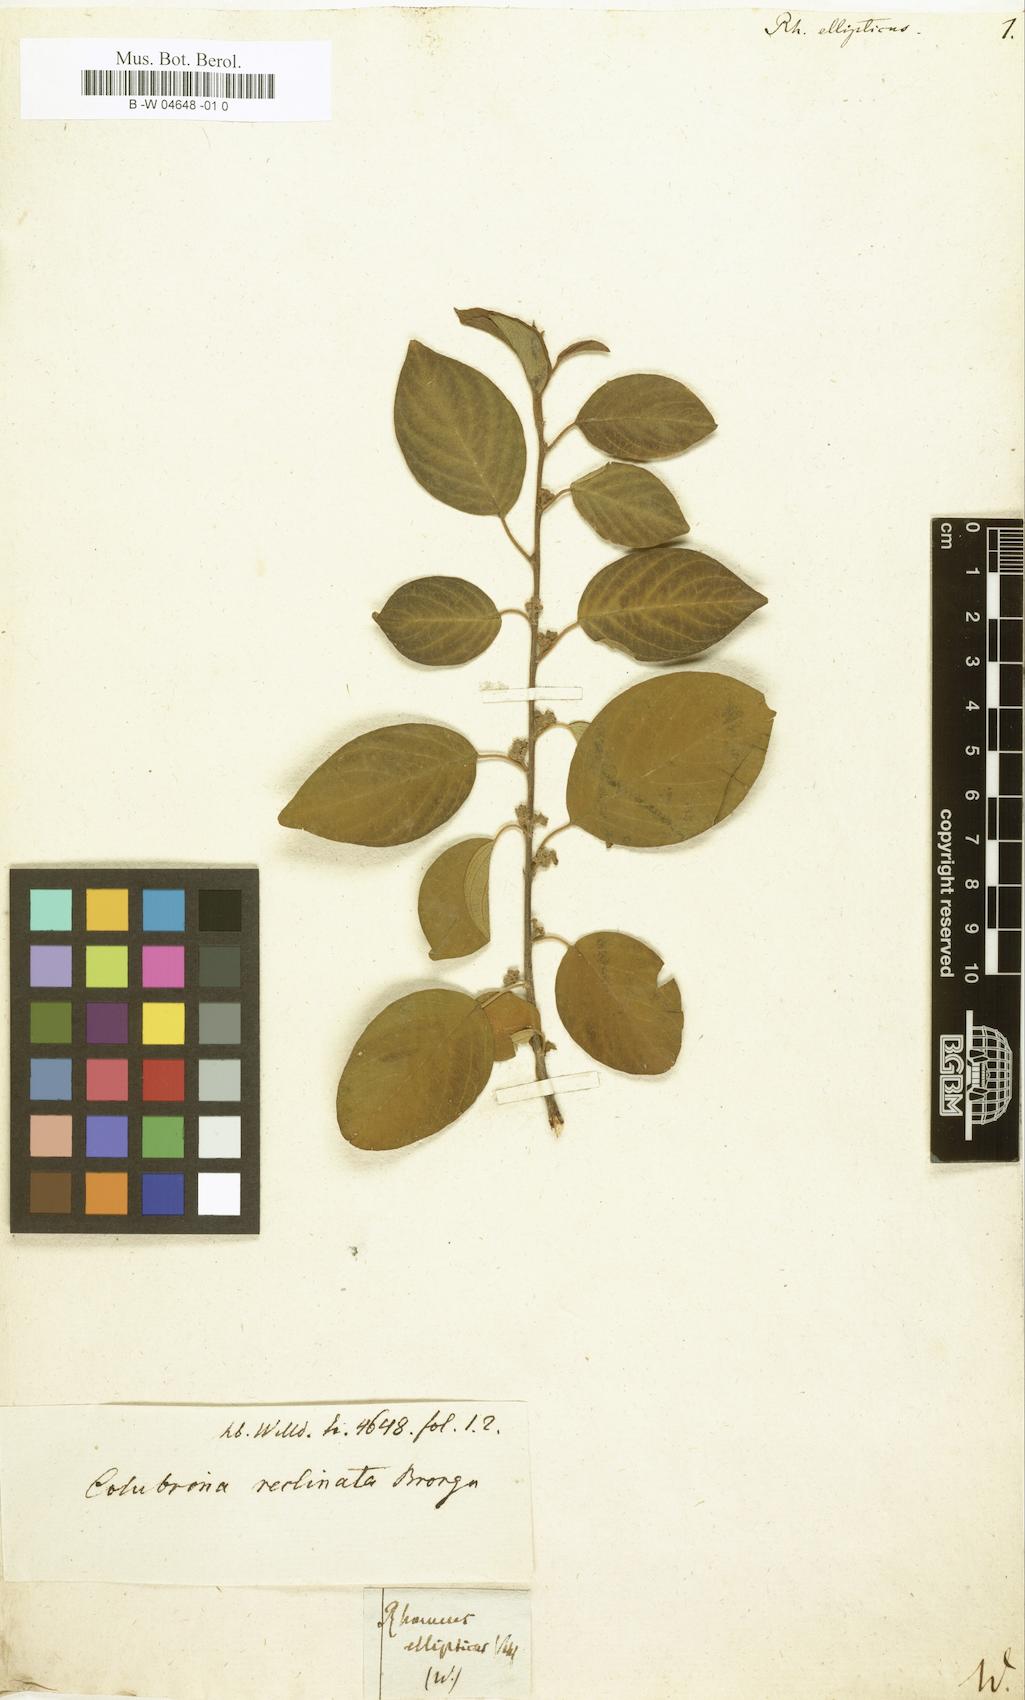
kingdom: Plantae
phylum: Tracheophyta
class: Magnoliopsida
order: Rosales
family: Rhamnaceae
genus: Colubrina
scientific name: Colubrina elliptica
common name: Soldierwood
